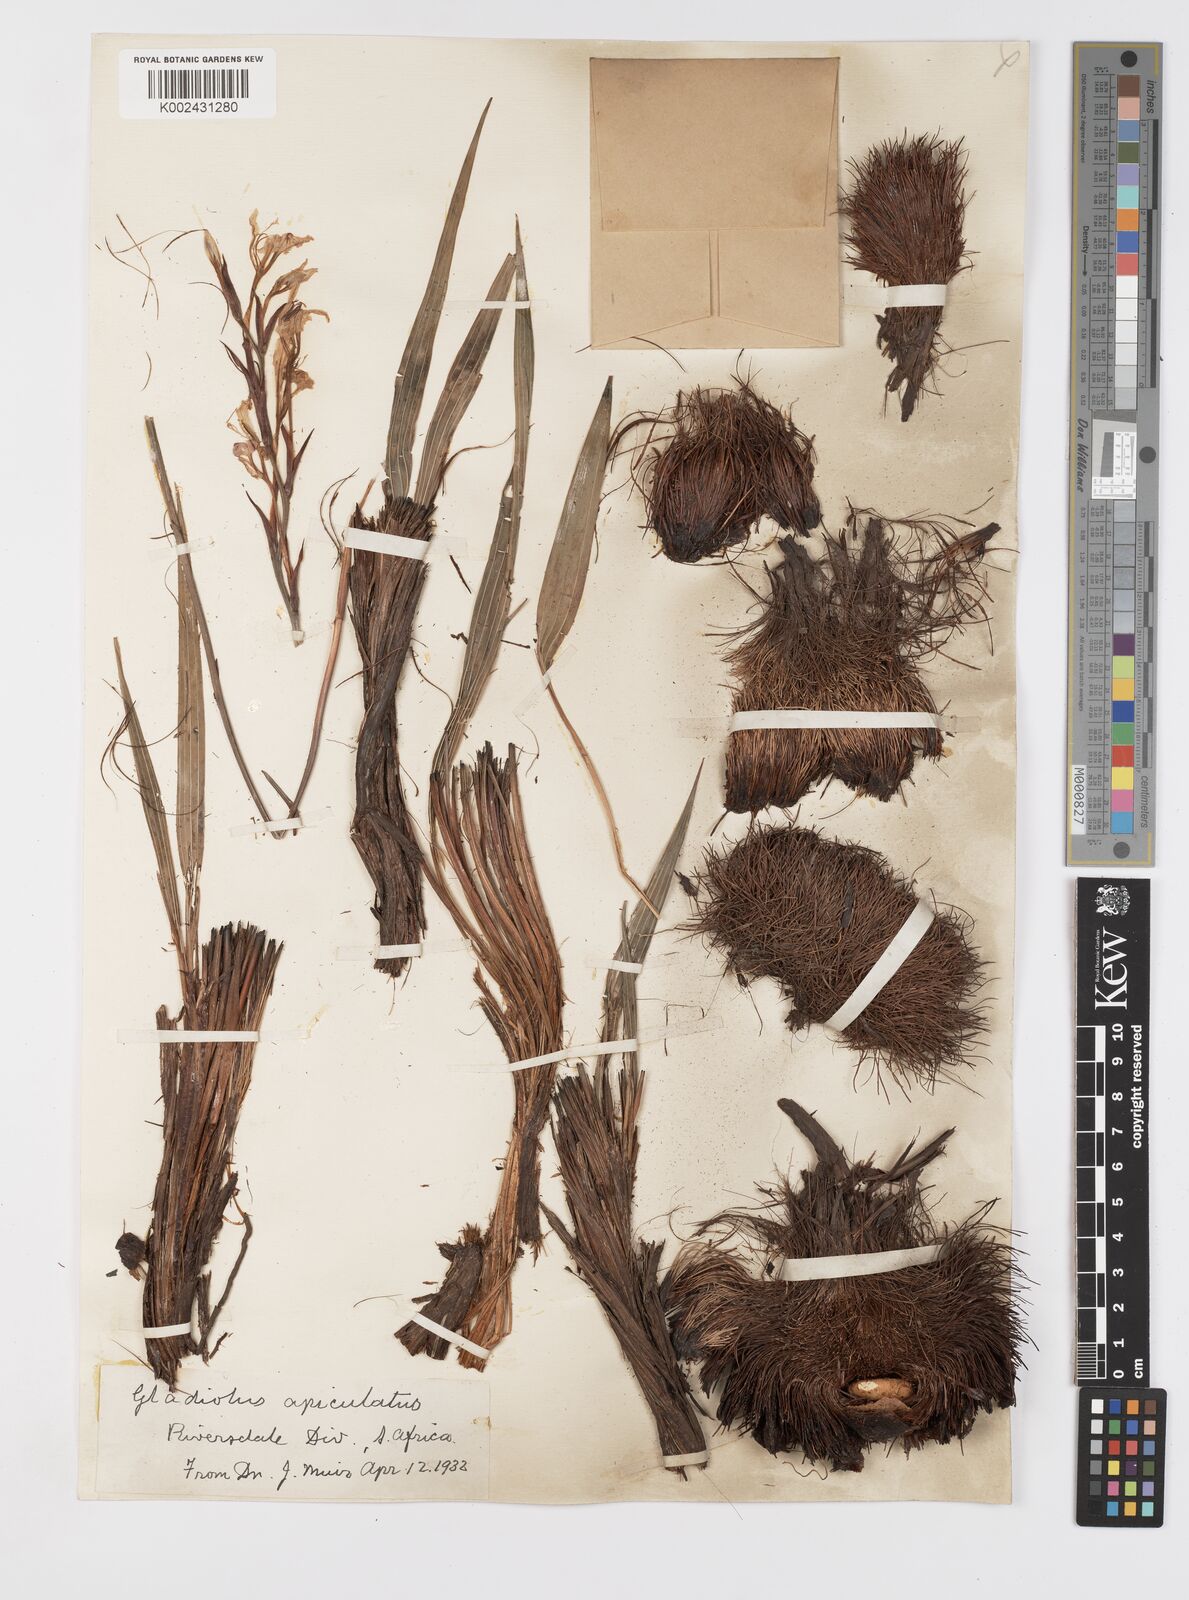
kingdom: Plantae
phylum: Tracheophyta
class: Liliopsida
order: Asparagales
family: Iridaceae
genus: Tritoniopsis
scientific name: Tritoniopsis revoluta
